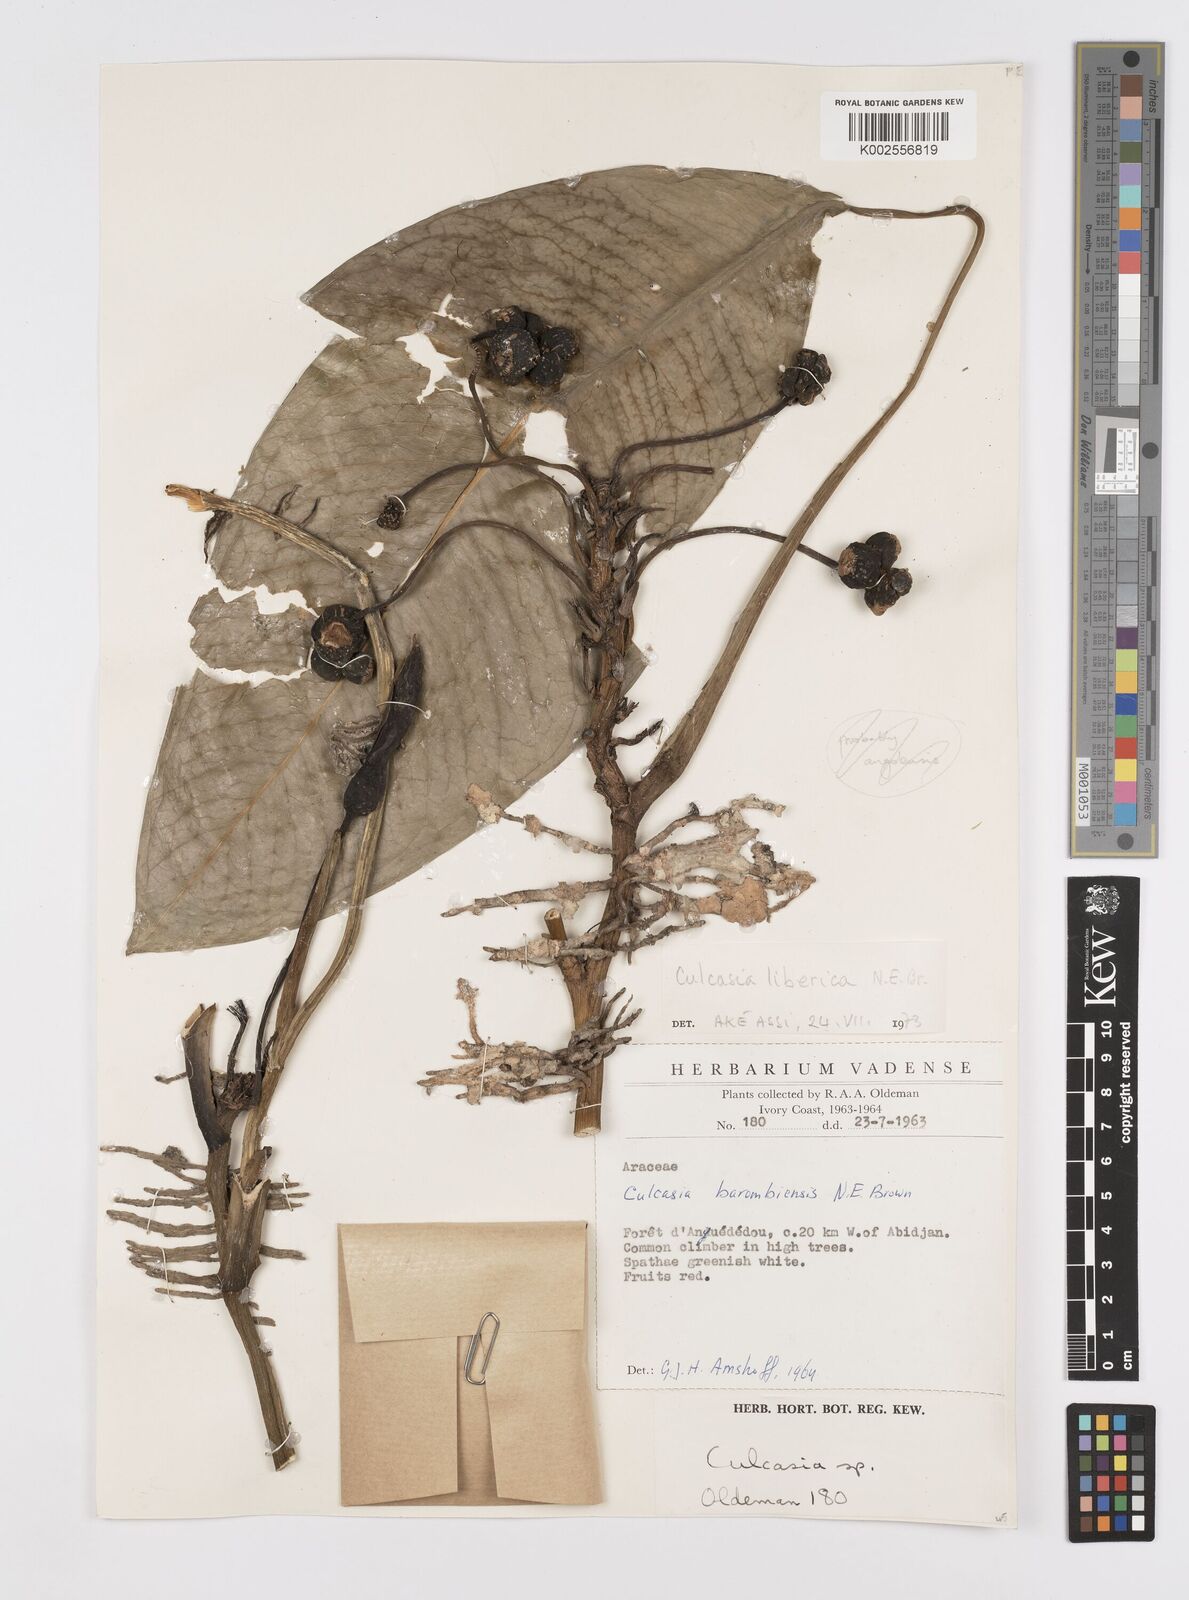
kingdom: Plantae
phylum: Tracheophyta
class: Liliopsida
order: Alismatales
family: Araceae
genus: Culcasia
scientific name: Culcasia liberica
